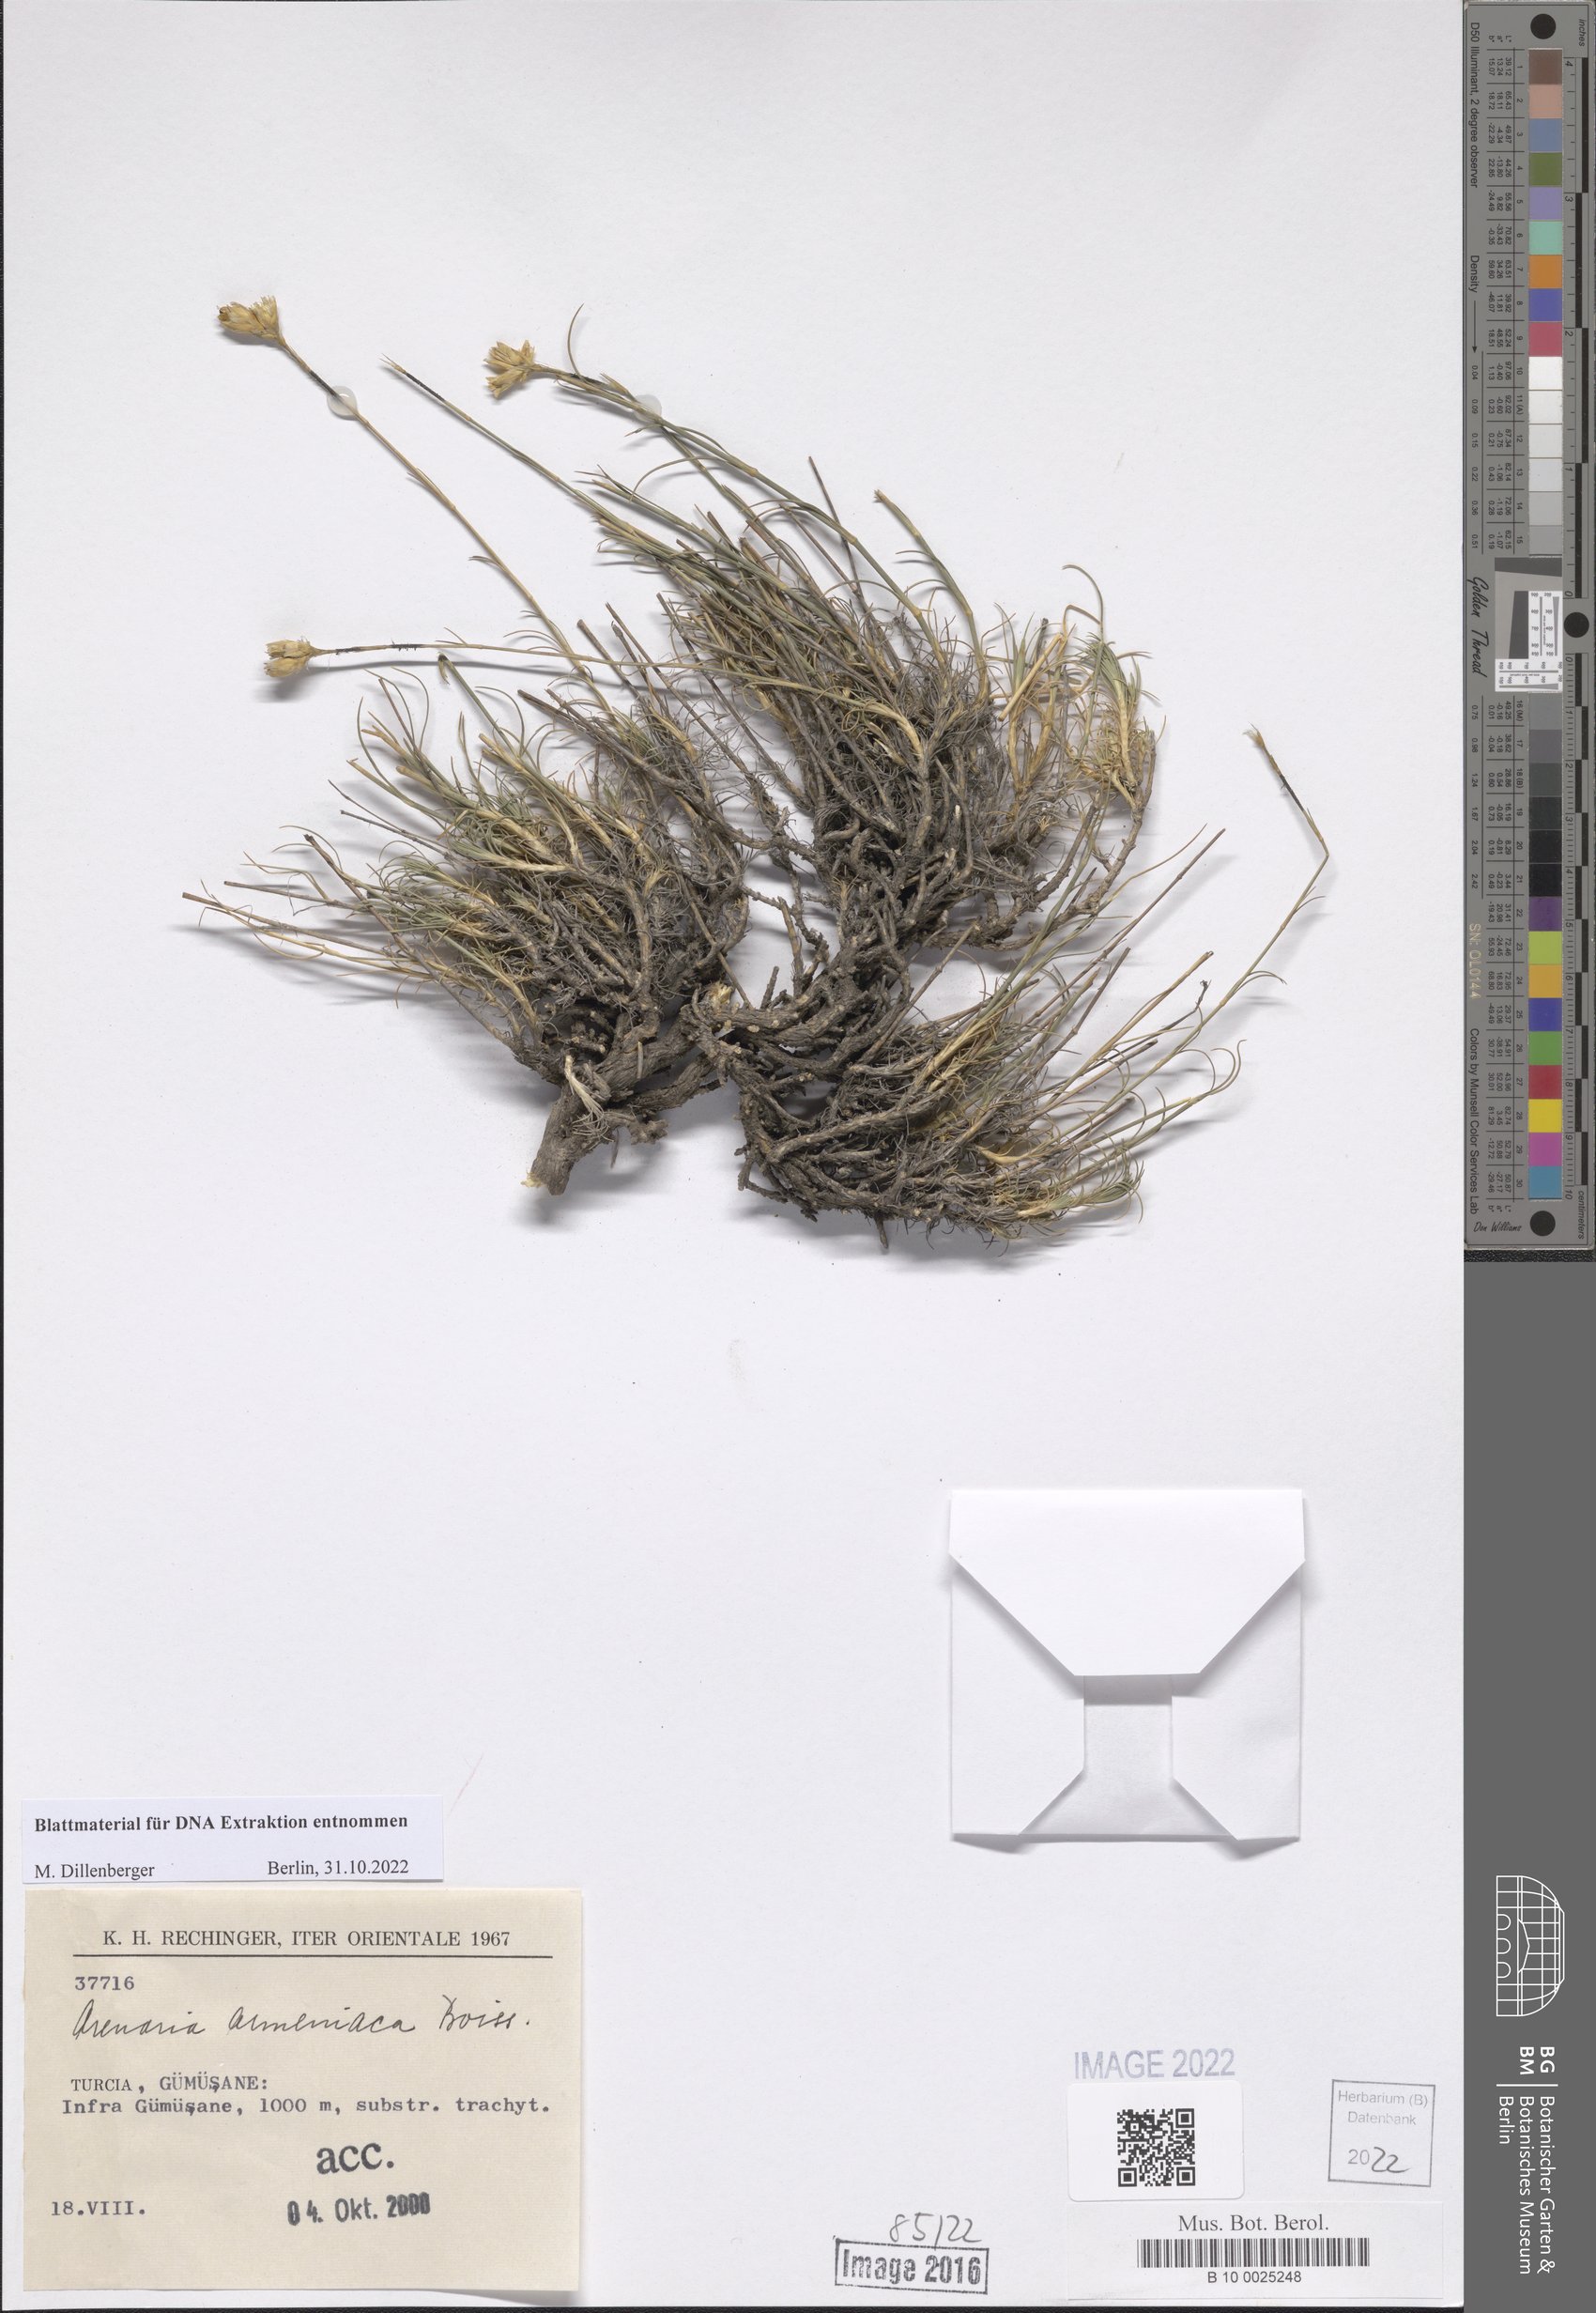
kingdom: Plantae
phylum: Tracheophyta
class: Magnoliopsida
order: Caryophyllales
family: Caryophyllaceae
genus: Eremogone
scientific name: Eremogone armeniaca
